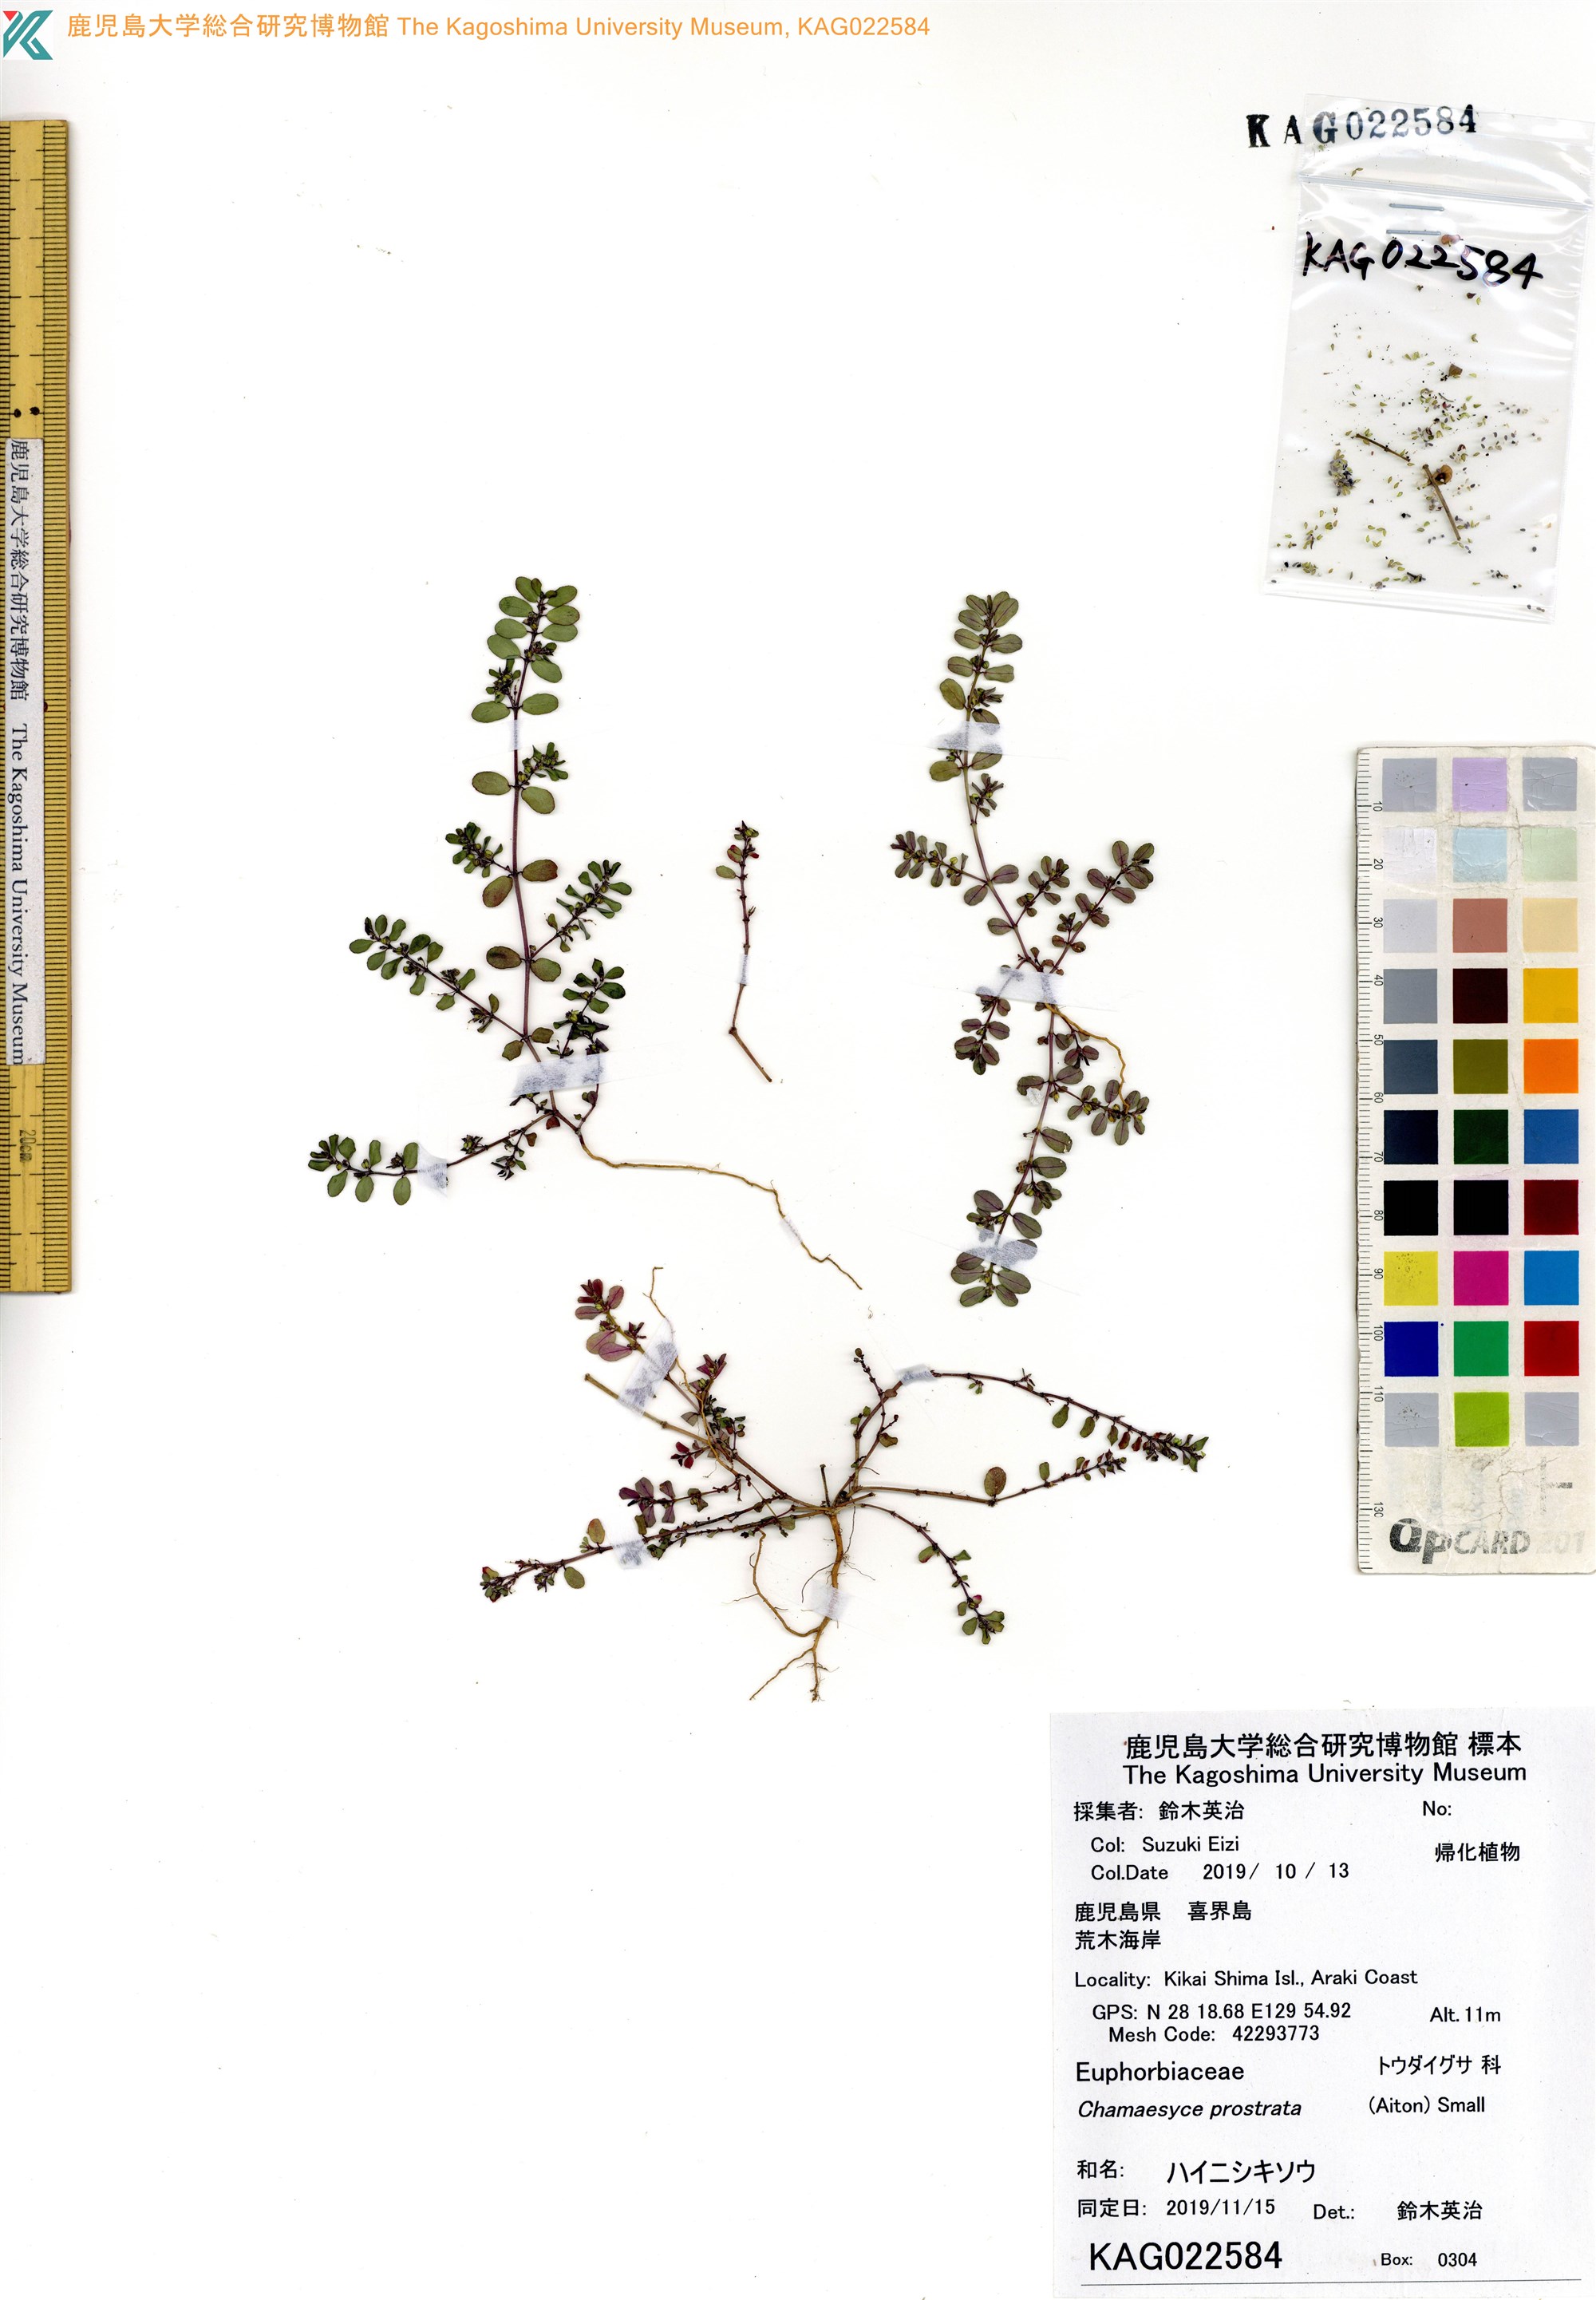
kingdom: Plantae
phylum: Tracheophyta
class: Magnoliopsida
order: Malpighiales
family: Euphorbiaceae
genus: Euphorbia
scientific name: Euphorbia prostrata
